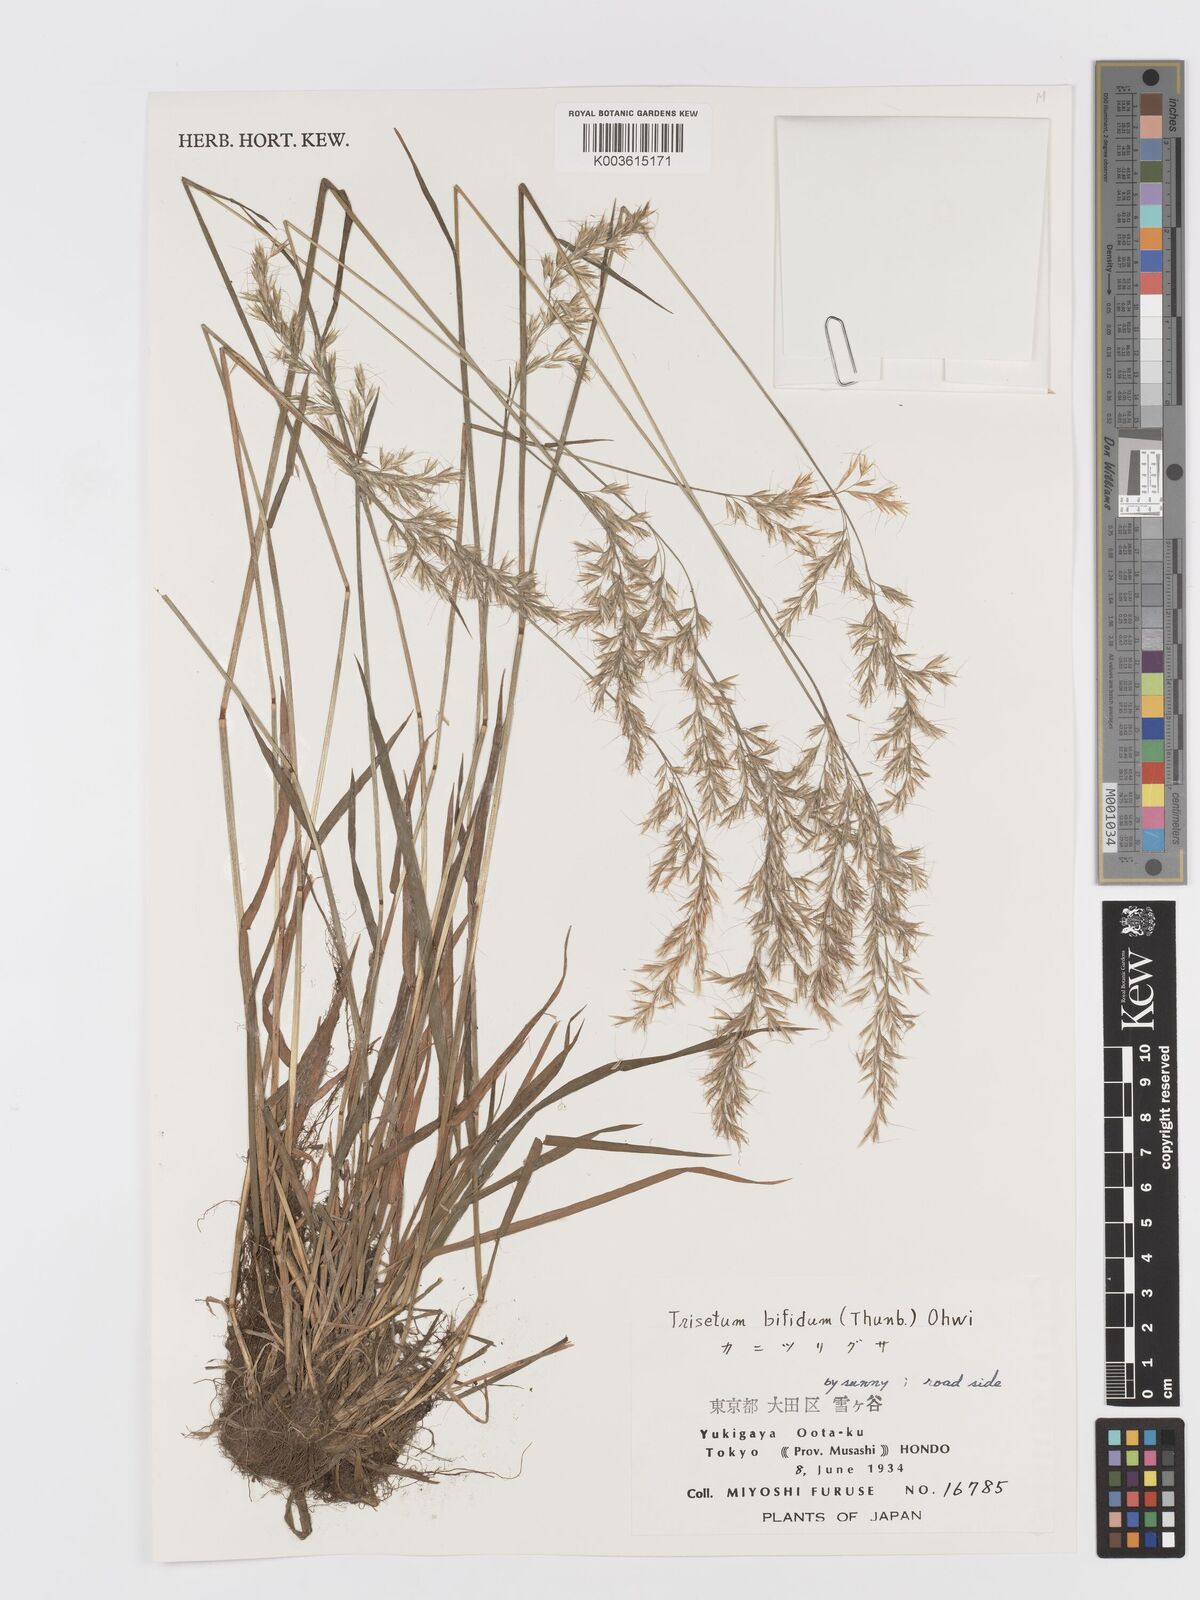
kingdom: Plantae
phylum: Tracheophyta
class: Liliopsida
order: Poales
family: Poaceae
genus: Sibirotrisetum
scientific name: Sibirotrisetum bifidum
